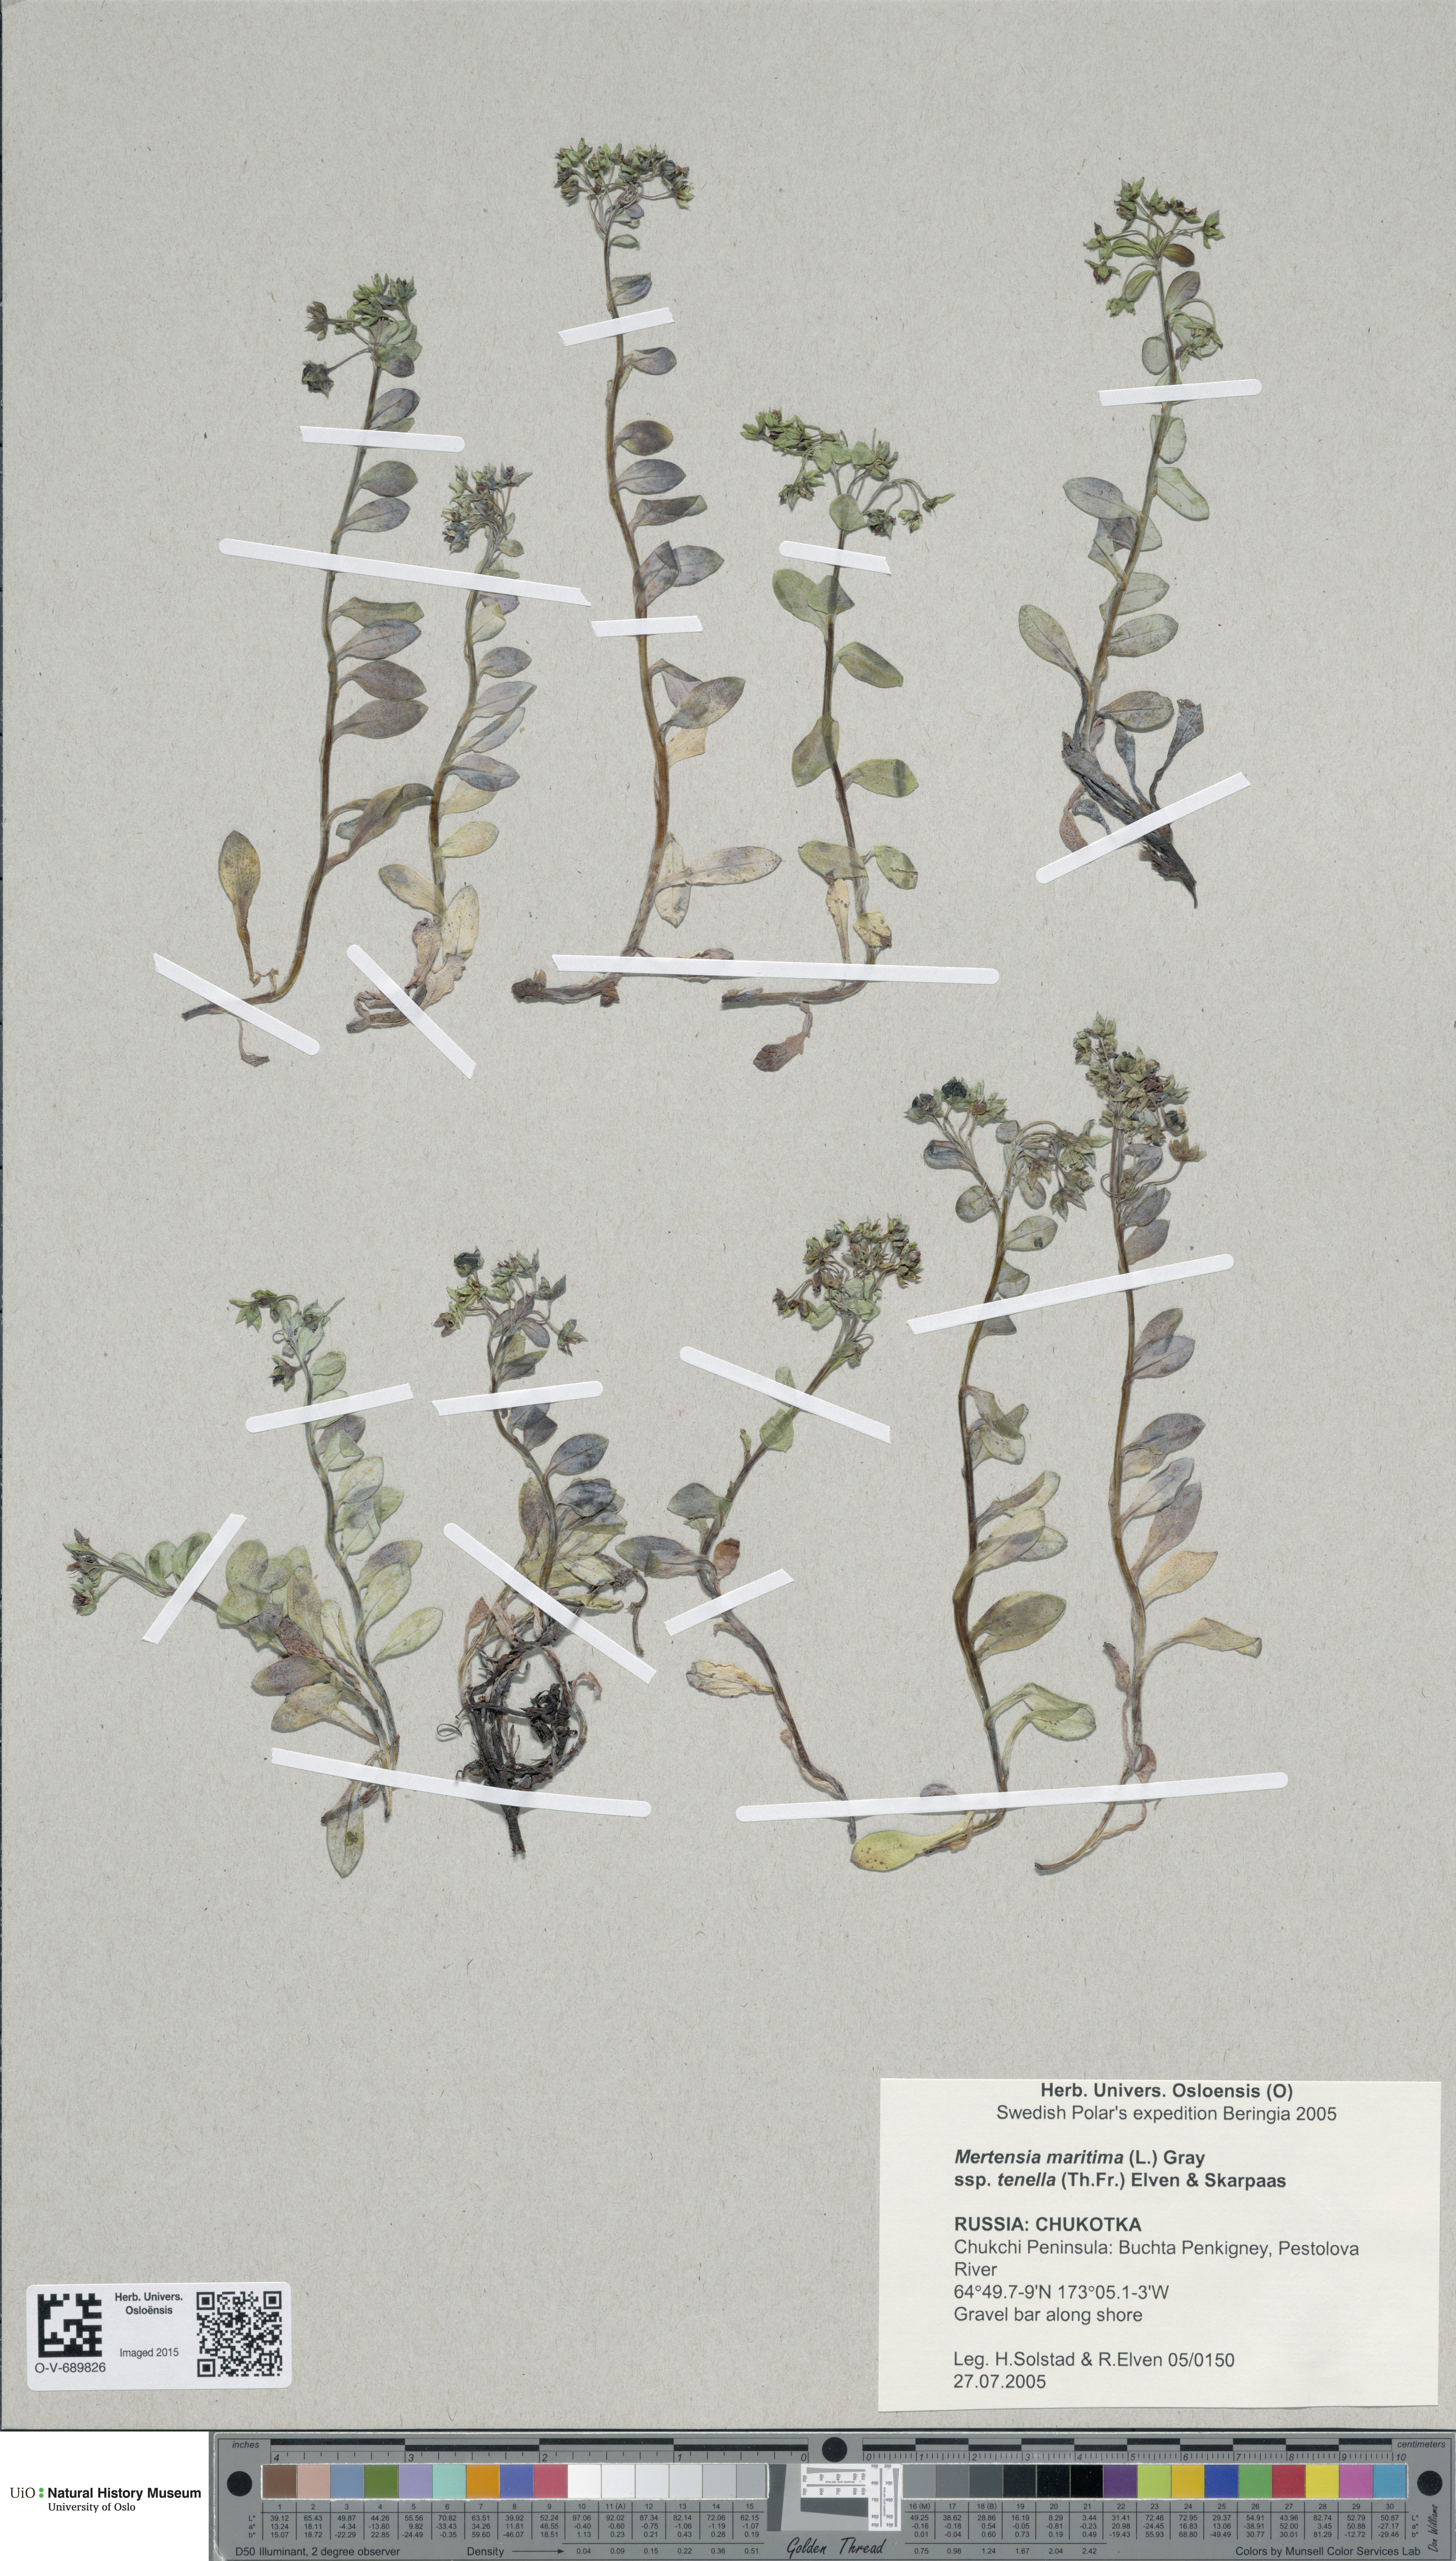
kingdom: Plantae
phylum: Tracheophyta
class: Magnoliopsida
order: Boraginales
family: Boraginaceae
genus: Mertensia
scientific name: Mertensia maritima
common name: Oysterplant
